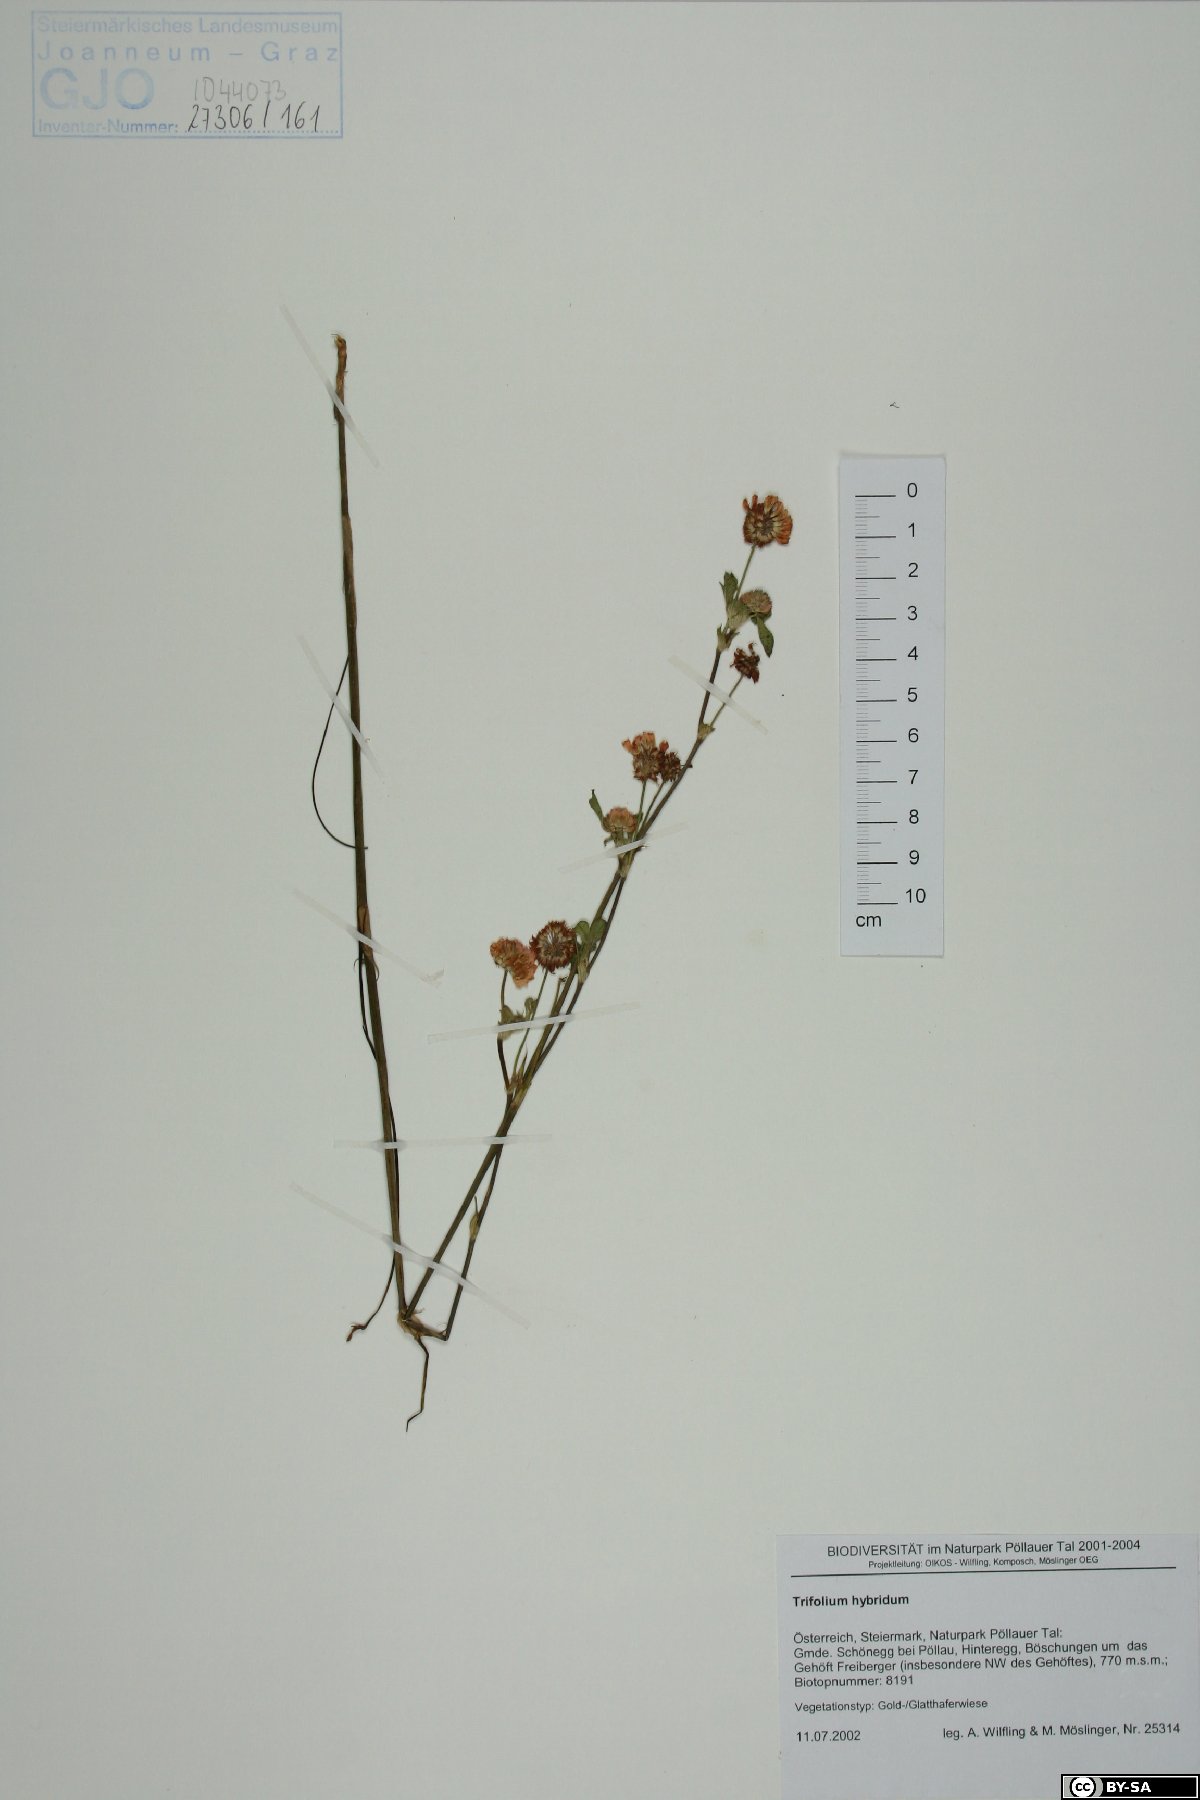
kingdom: Plantae
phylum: Tracheophyta
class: Magnoliopsida
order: Fabales
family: Fabaceae
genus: Trifolium
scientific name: Trifolium hybridum
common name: Alsike clover
